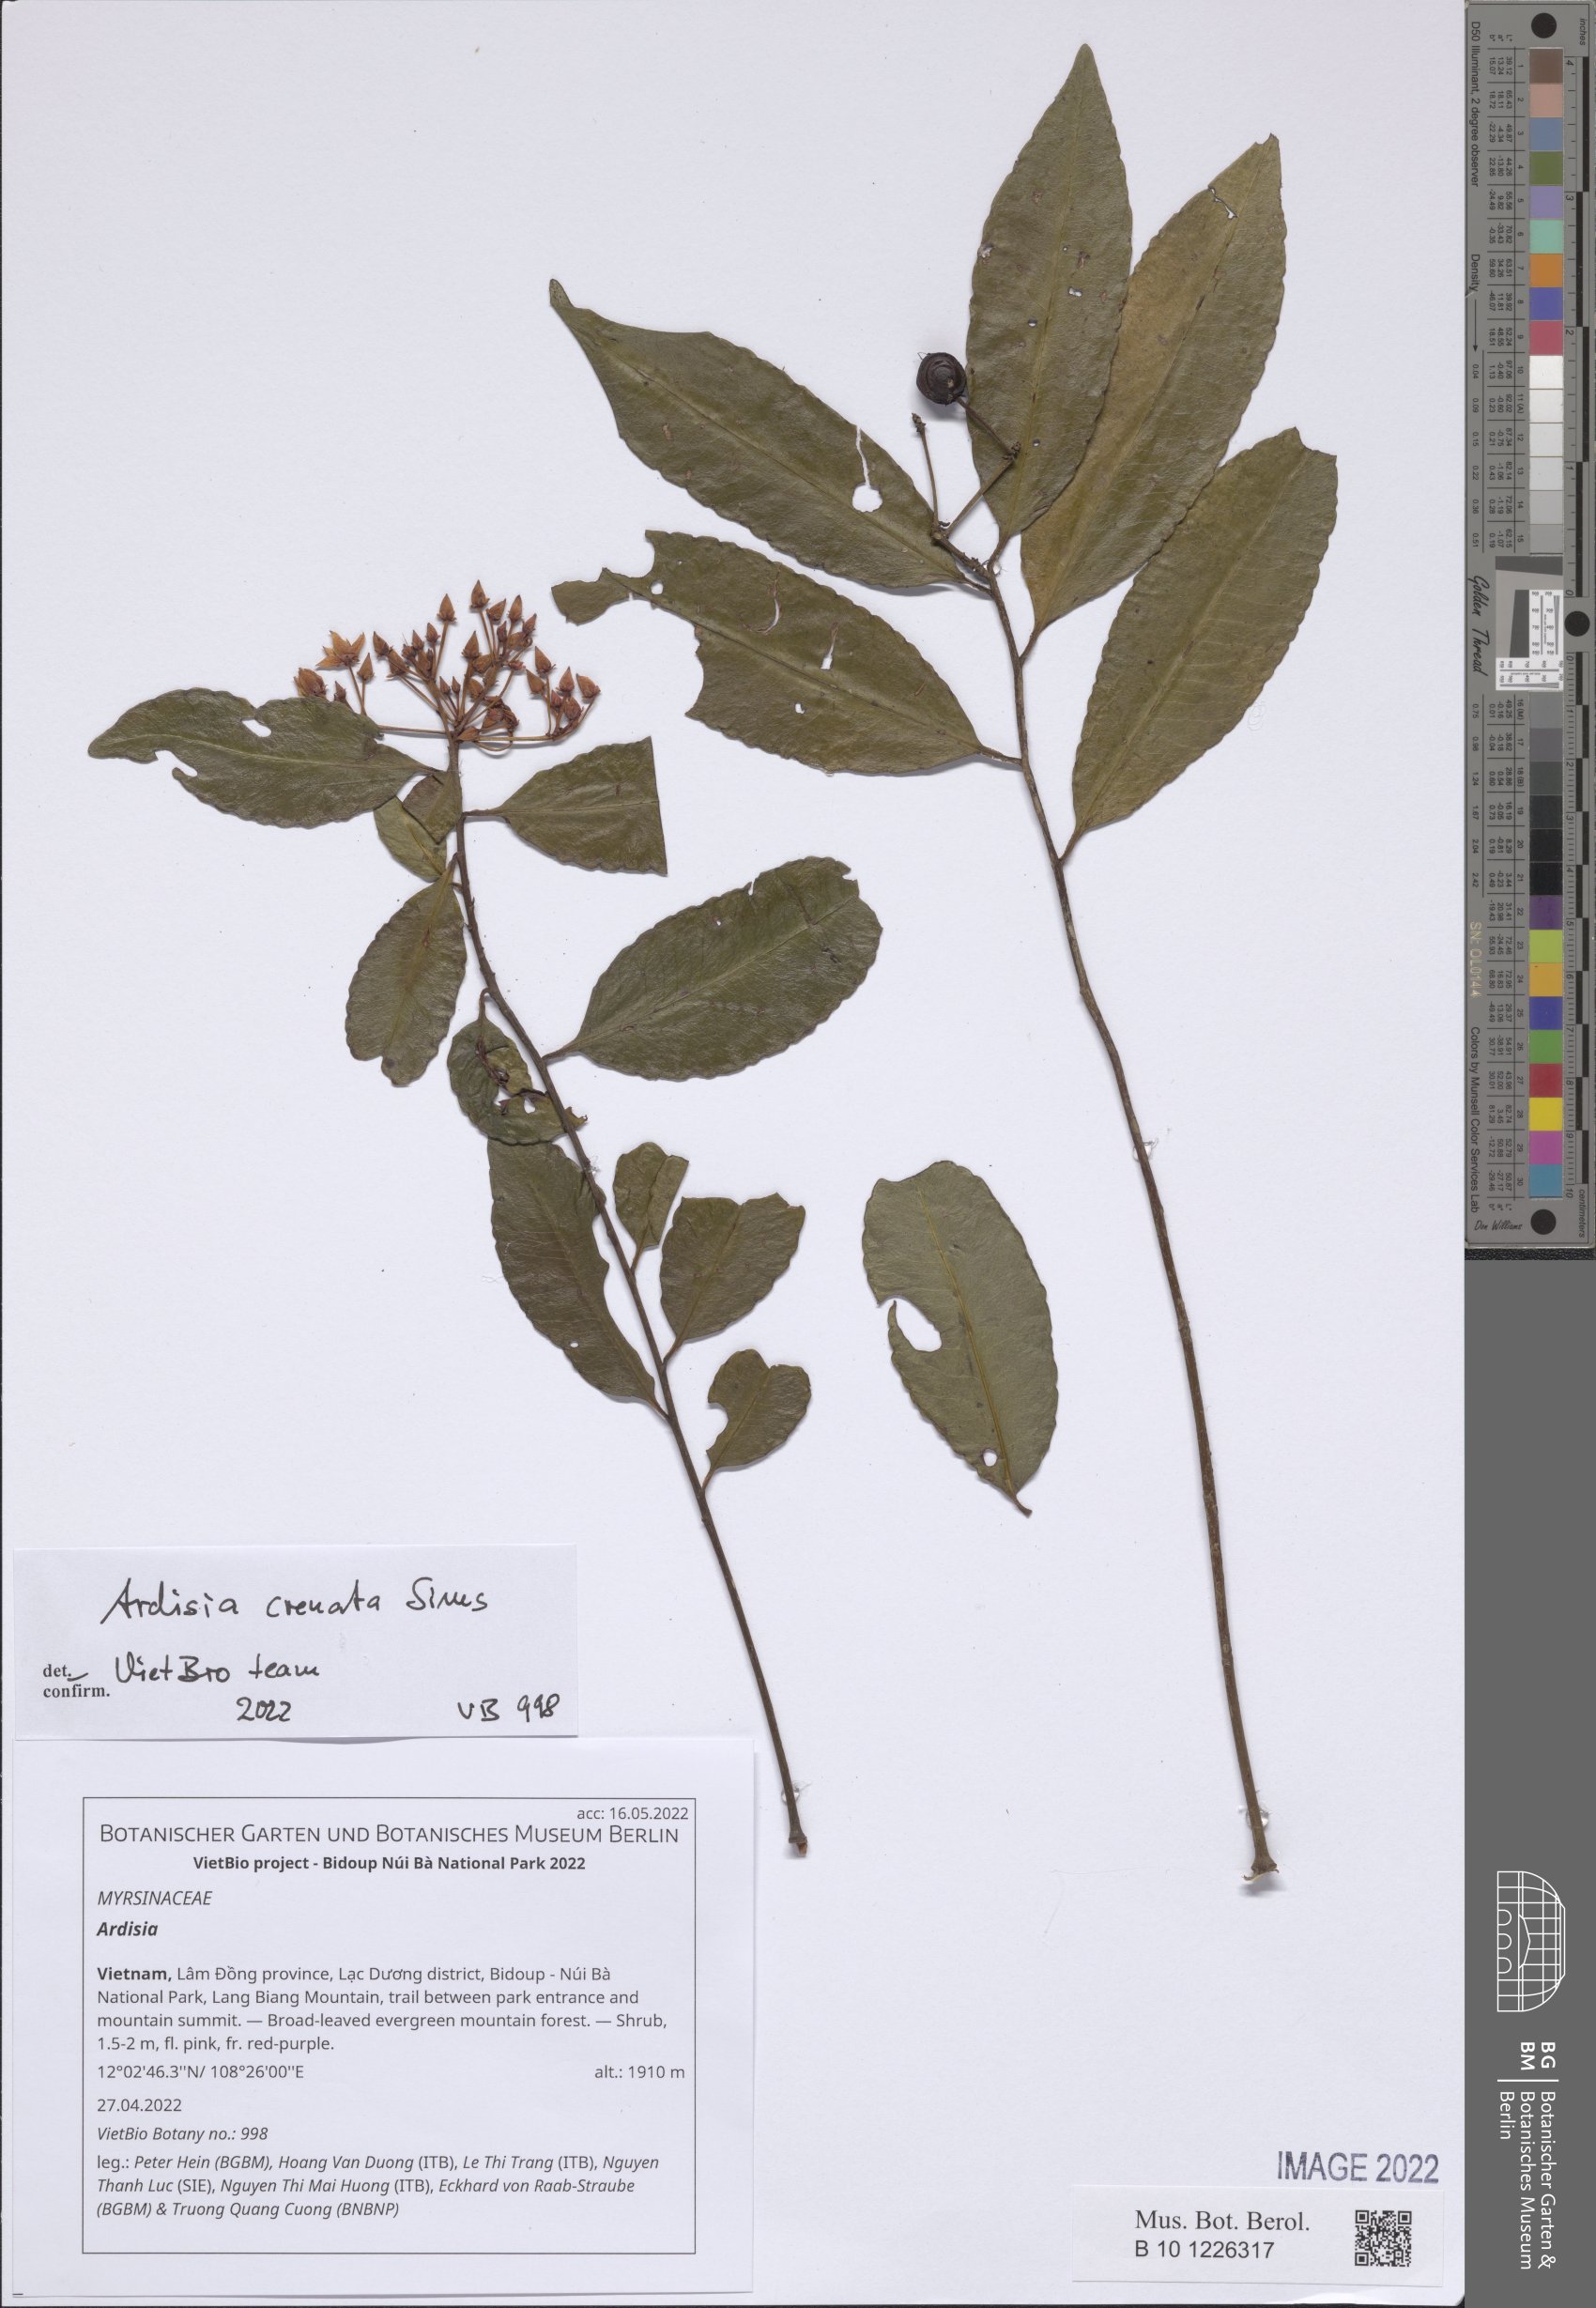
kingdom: Plantae
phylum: Tracheophyta
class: Magnoliopsida
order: Ericales
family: Primulaceae
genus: Ardisia
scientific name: Ardisia
